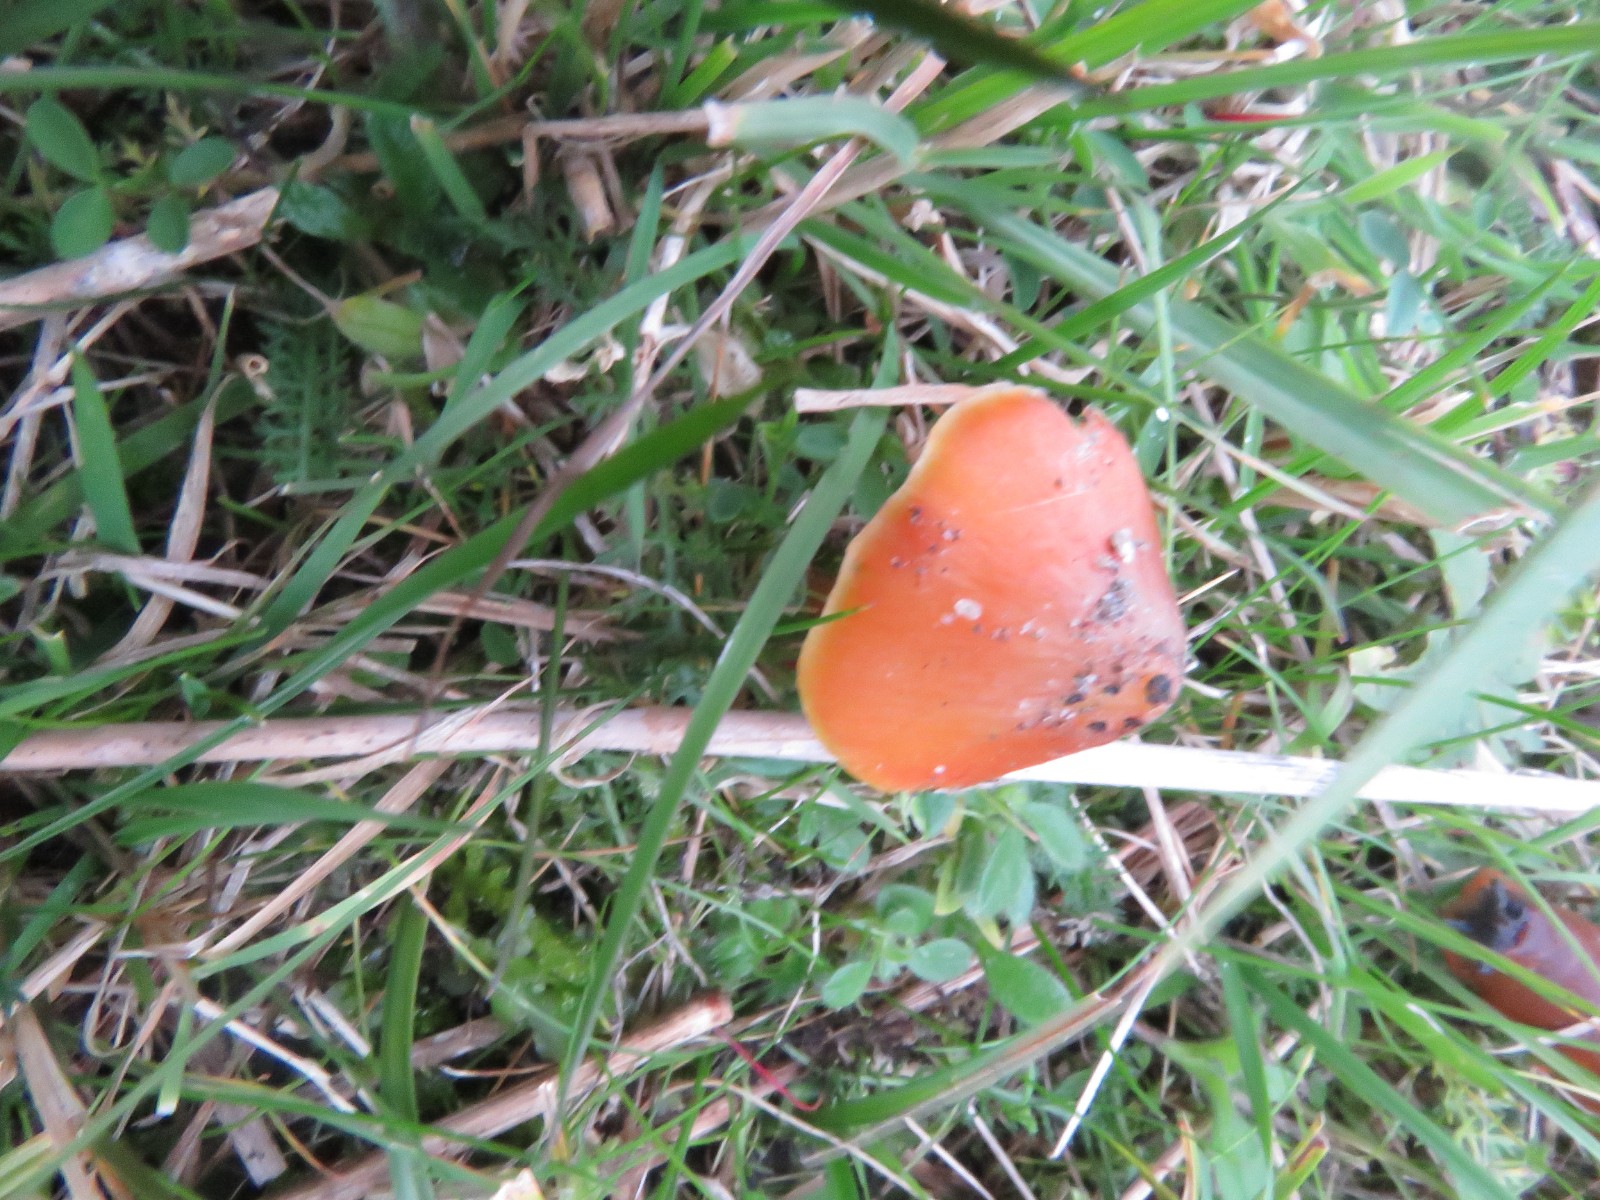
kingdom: Fungi
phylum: Basidiomycota
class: Agaricomycetes
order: Agaricales
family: Hygrophoraceae
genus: Hygrocybe
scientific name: Hygrocybe conica
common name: kegle-vokshat
